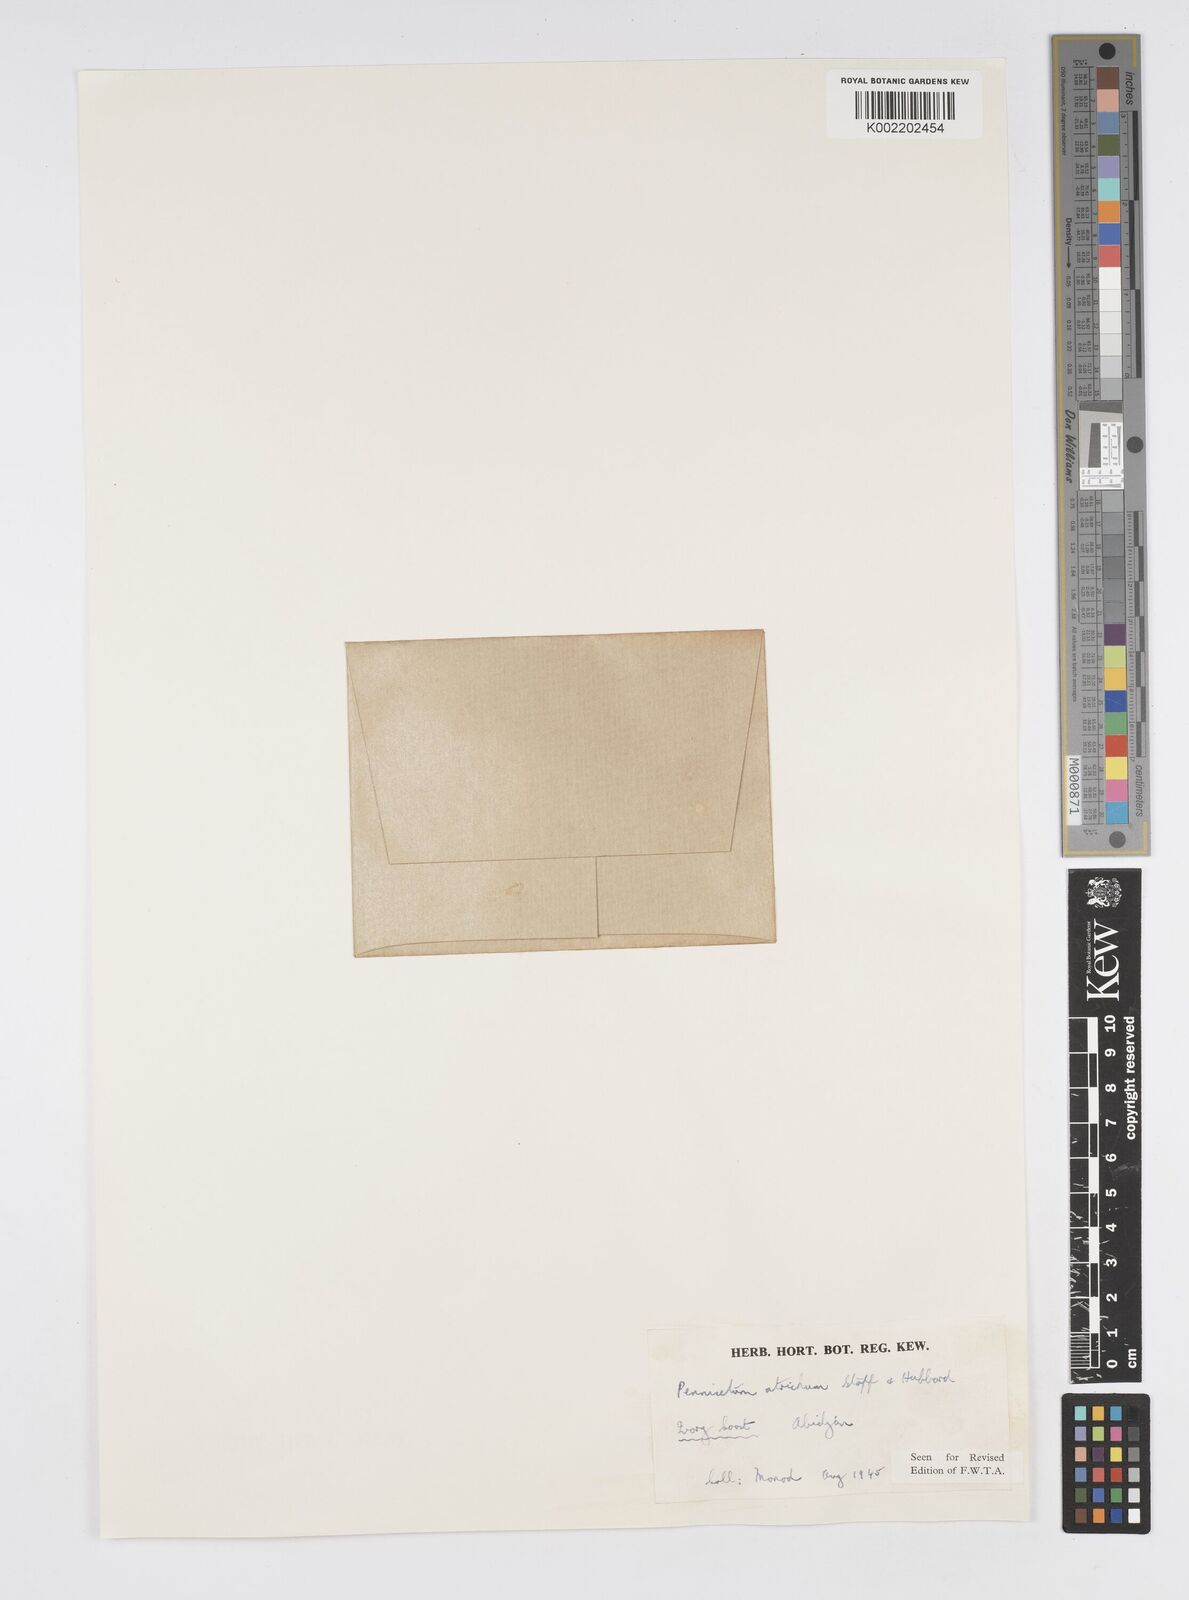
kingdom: Plantae
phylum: Tracheophyta
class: Liliopsida
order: Poales
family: Poaceae
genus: Cenchrus
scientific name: Cenchrus setosus
